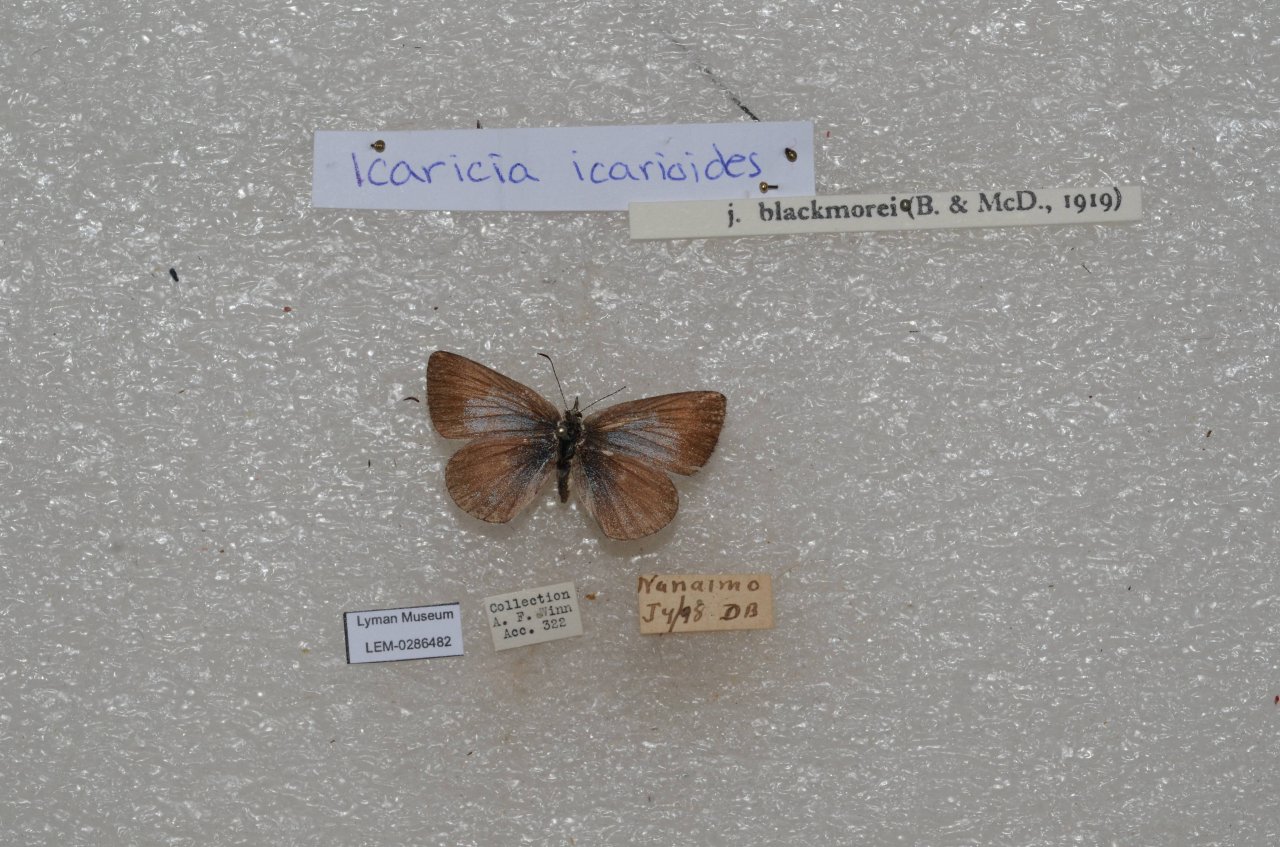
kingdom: Animalia
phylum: Arthropoda
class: Insecta
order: Lepidoptera
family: Lycaenidae
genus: Icaricia
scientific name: Icaricia icarioides
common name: Boisduval's Blue
